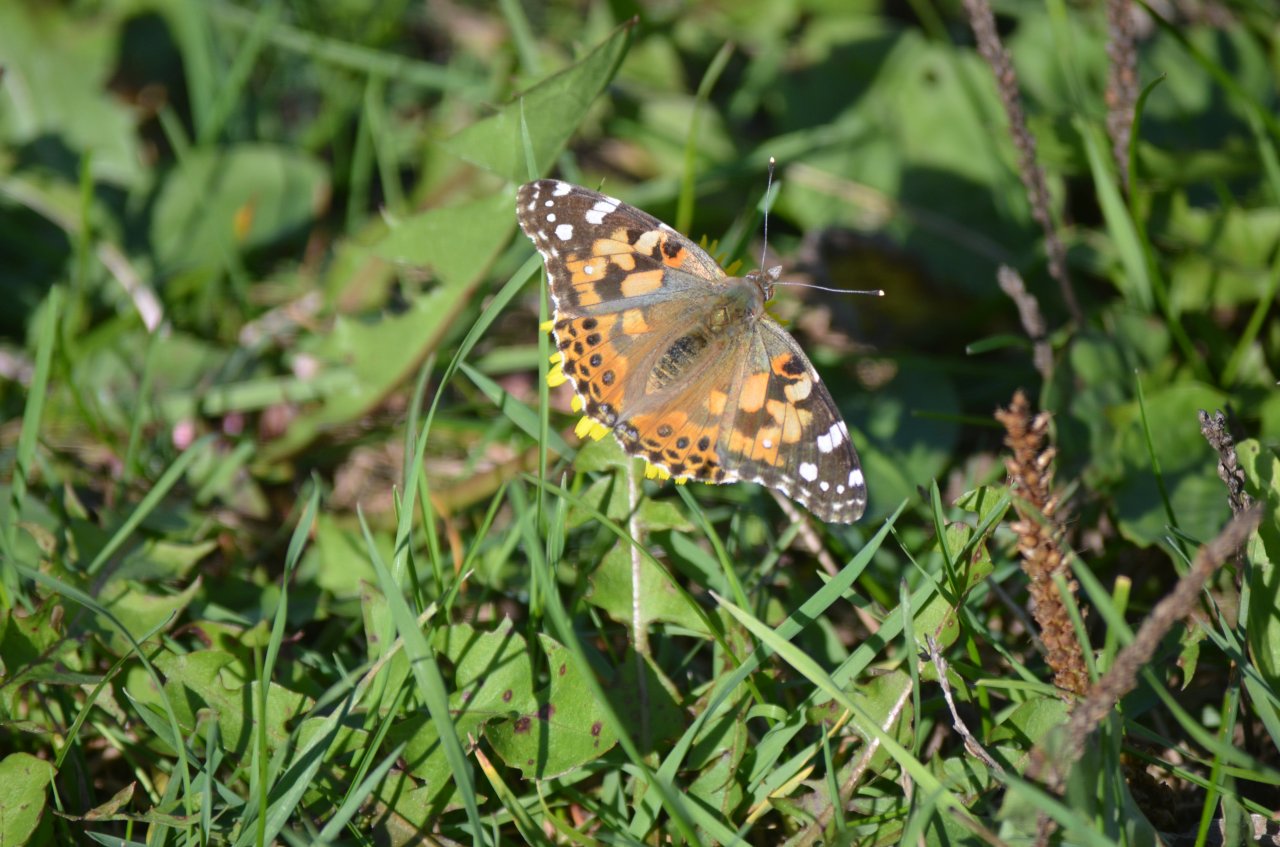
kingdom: Animalia
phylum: Arthropoda
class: Insecta
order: Lepidoptera
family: Nymphalidae
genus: Vanessa
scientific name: Vanessa virginiensis
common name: American Lady
